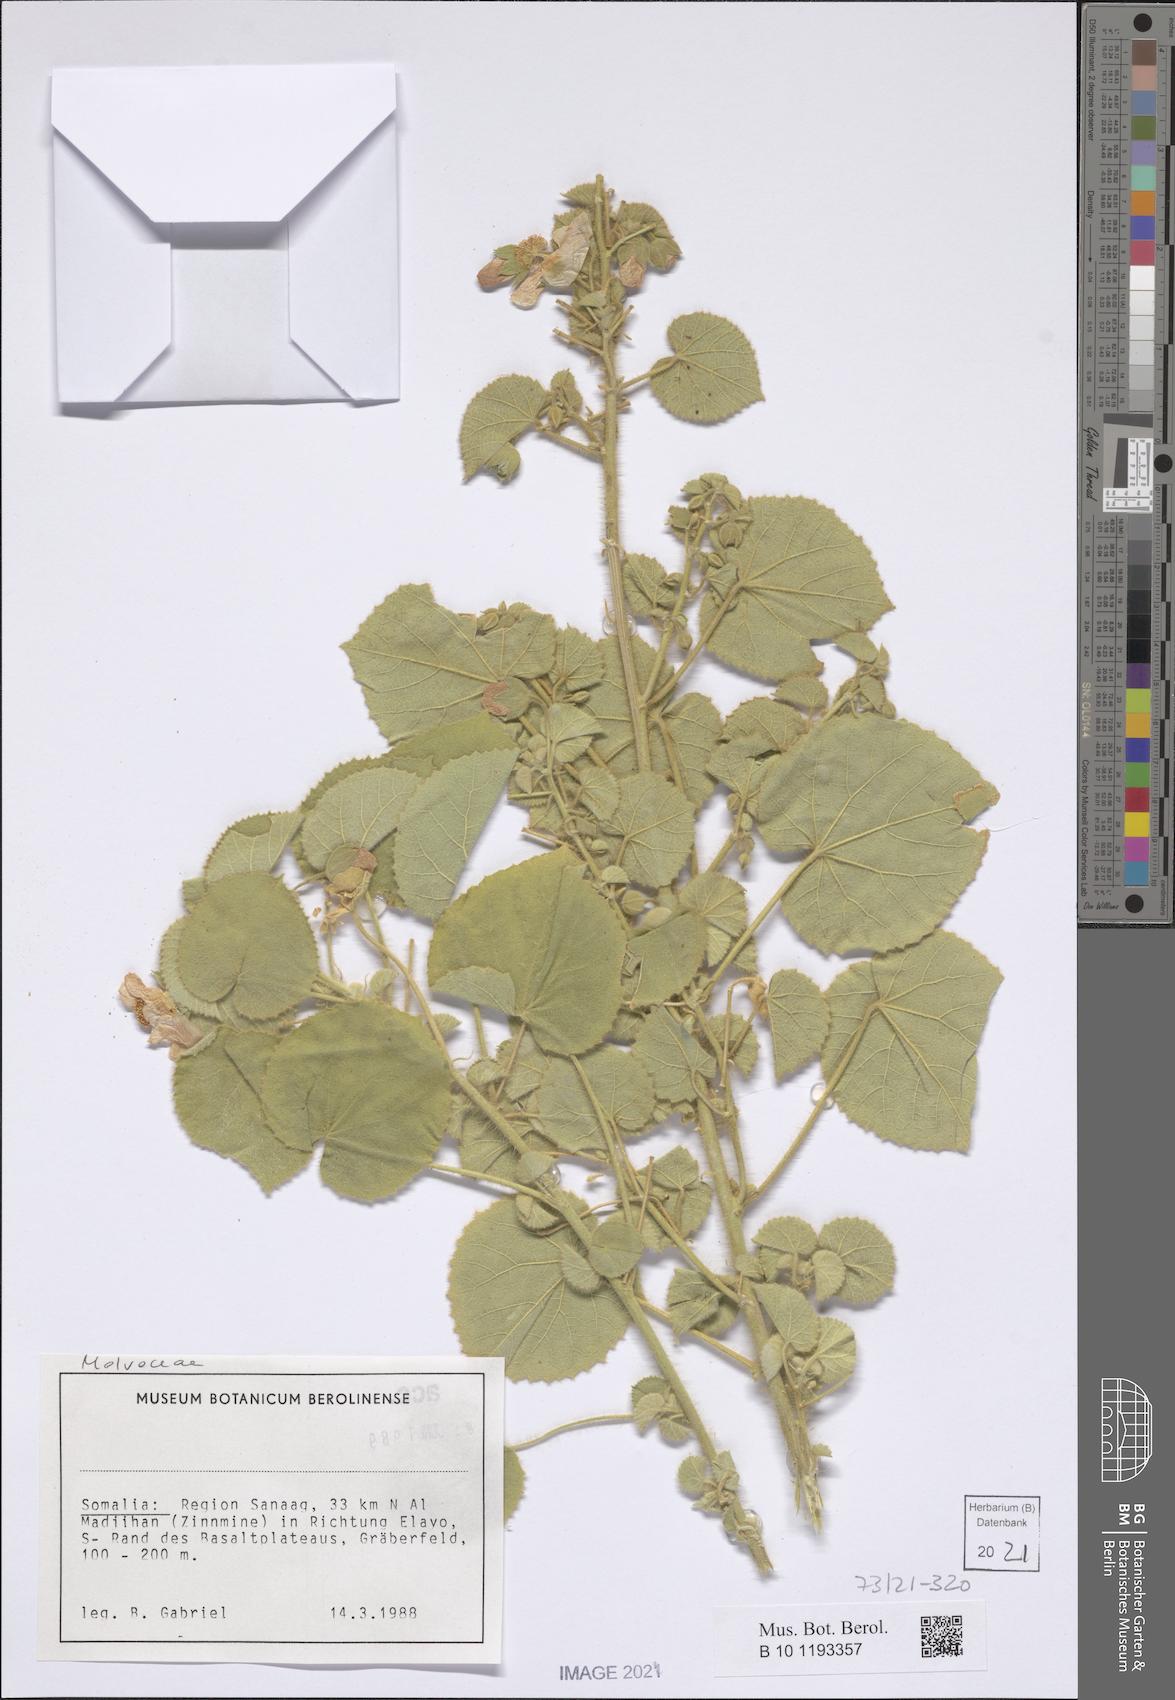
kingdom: Plantae
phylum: Tracheophyta
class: Magnoliopsida
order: Malvales
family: Malvaceae
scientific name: Malvaceae
